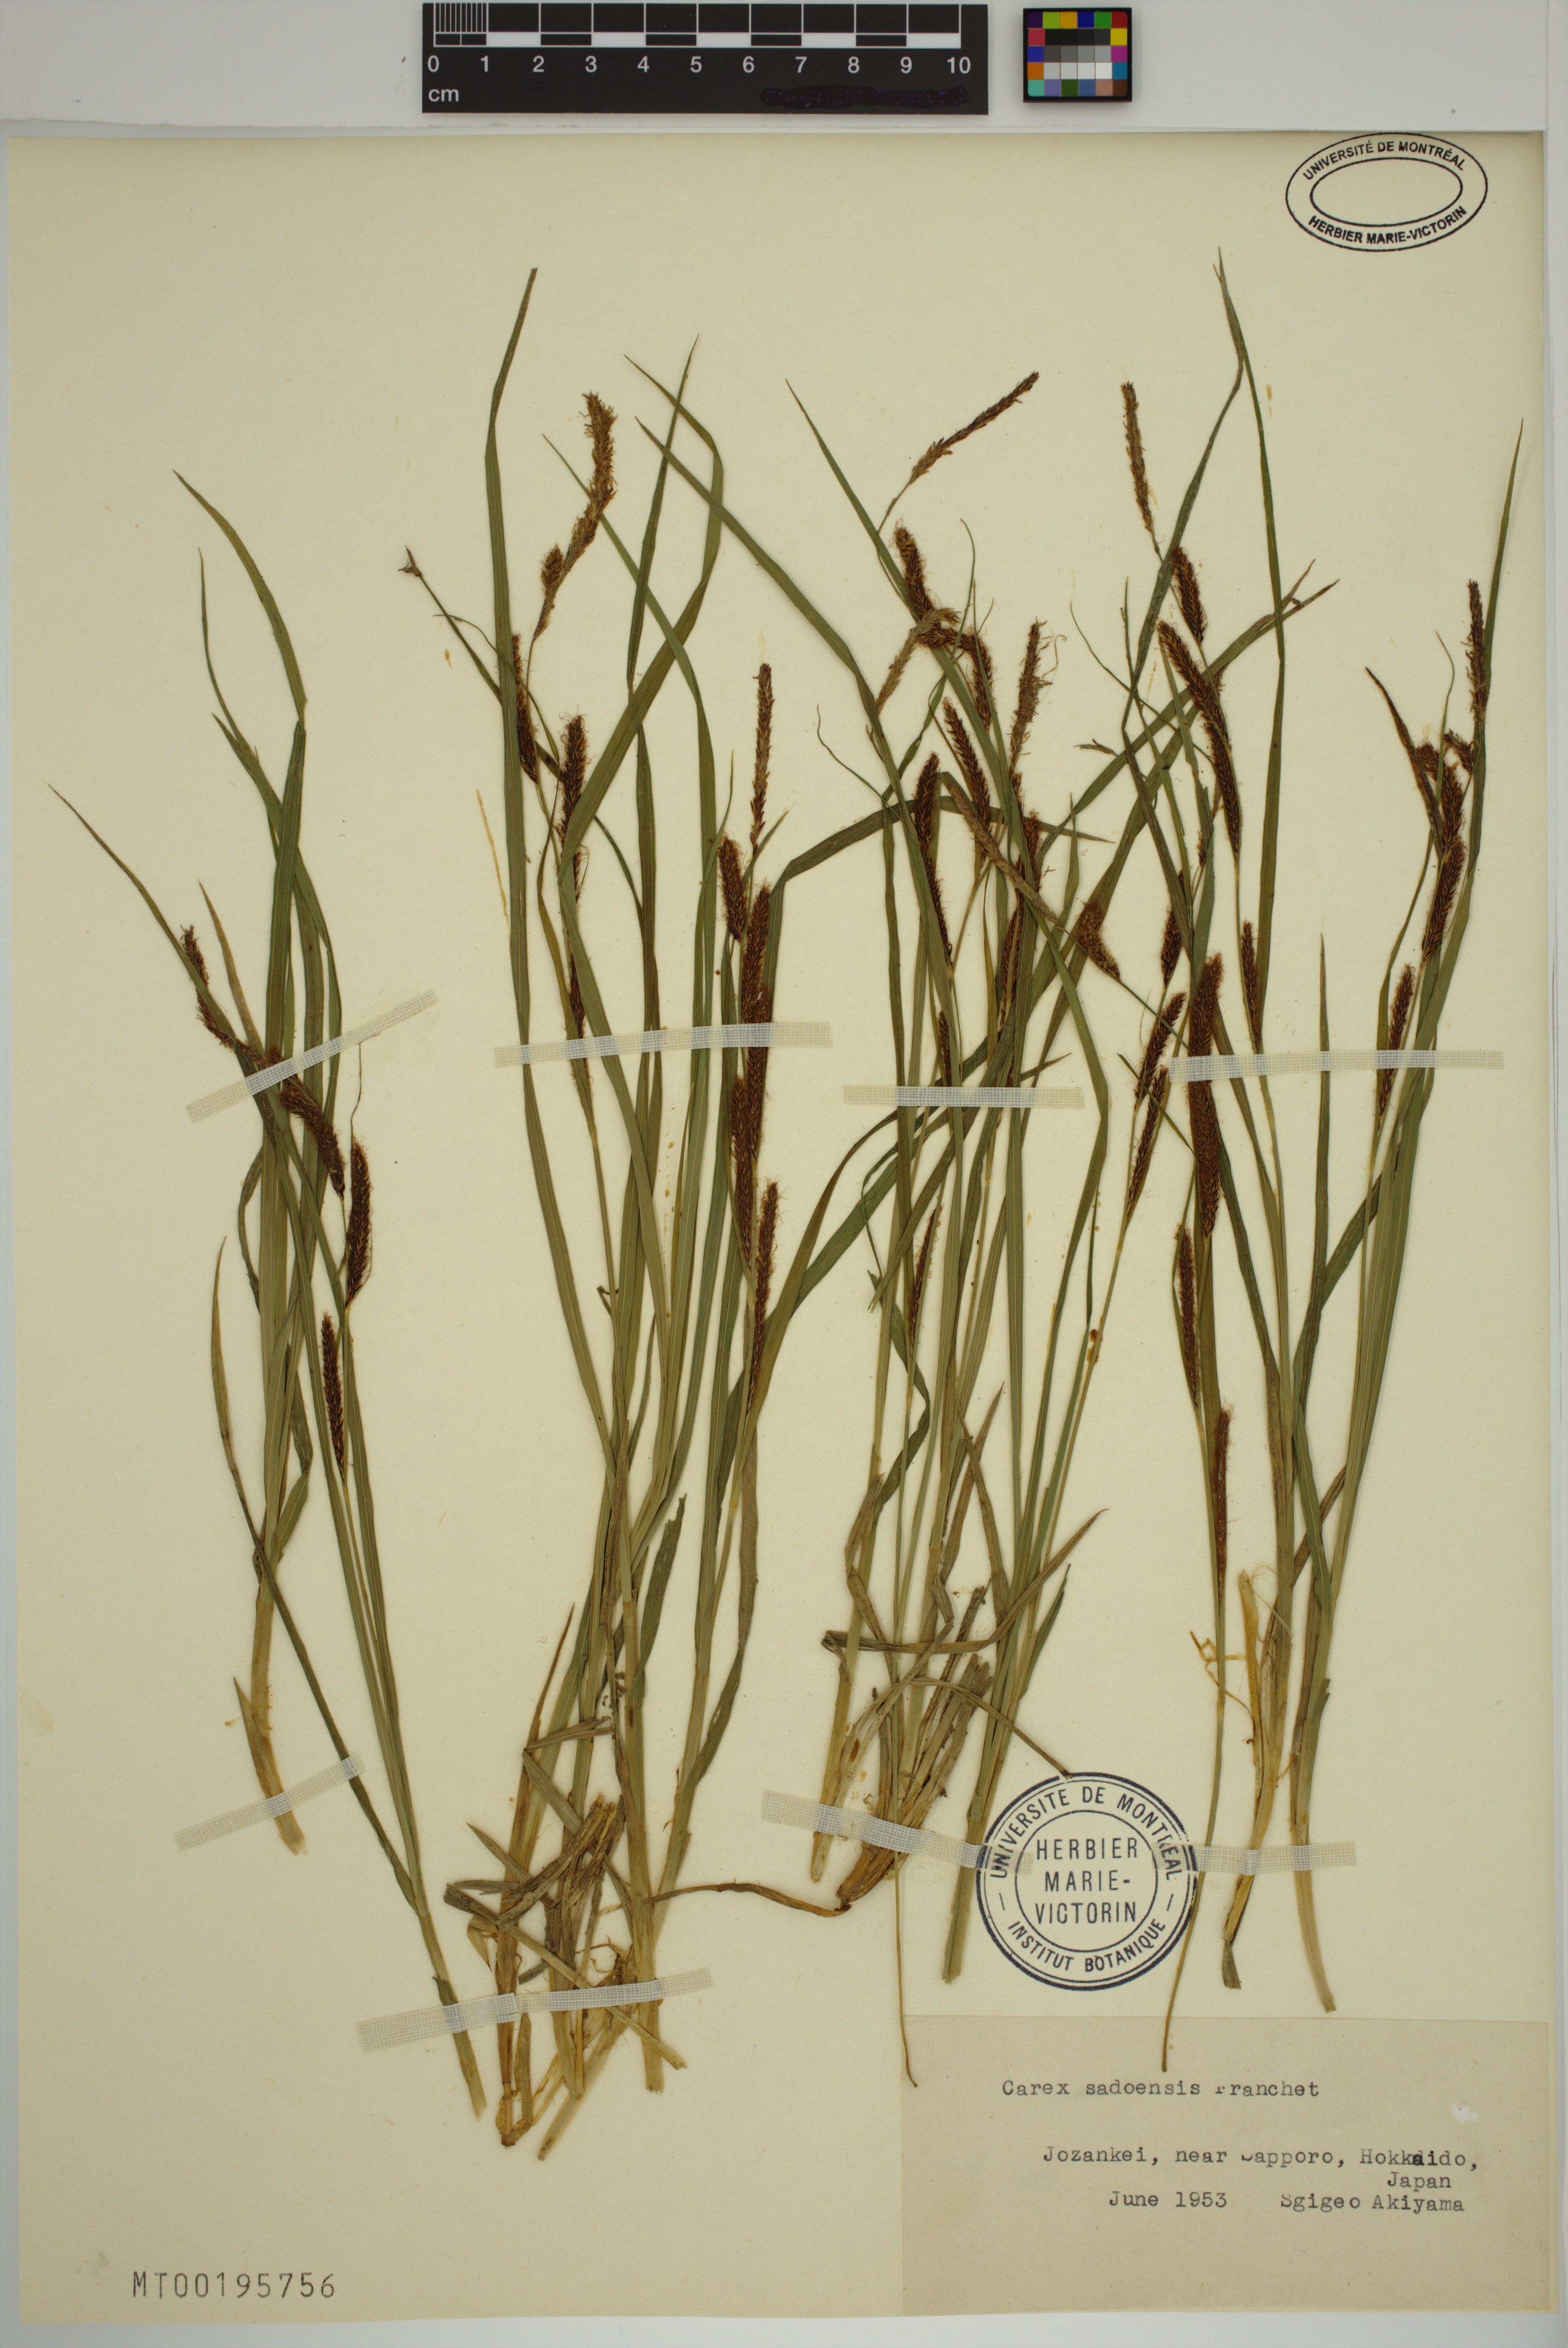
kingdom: Plantae
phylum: Tracheophyta
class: Liliopsida
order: Poales
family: Cyperaceae
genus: Carex
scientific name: Carex sadoensis
